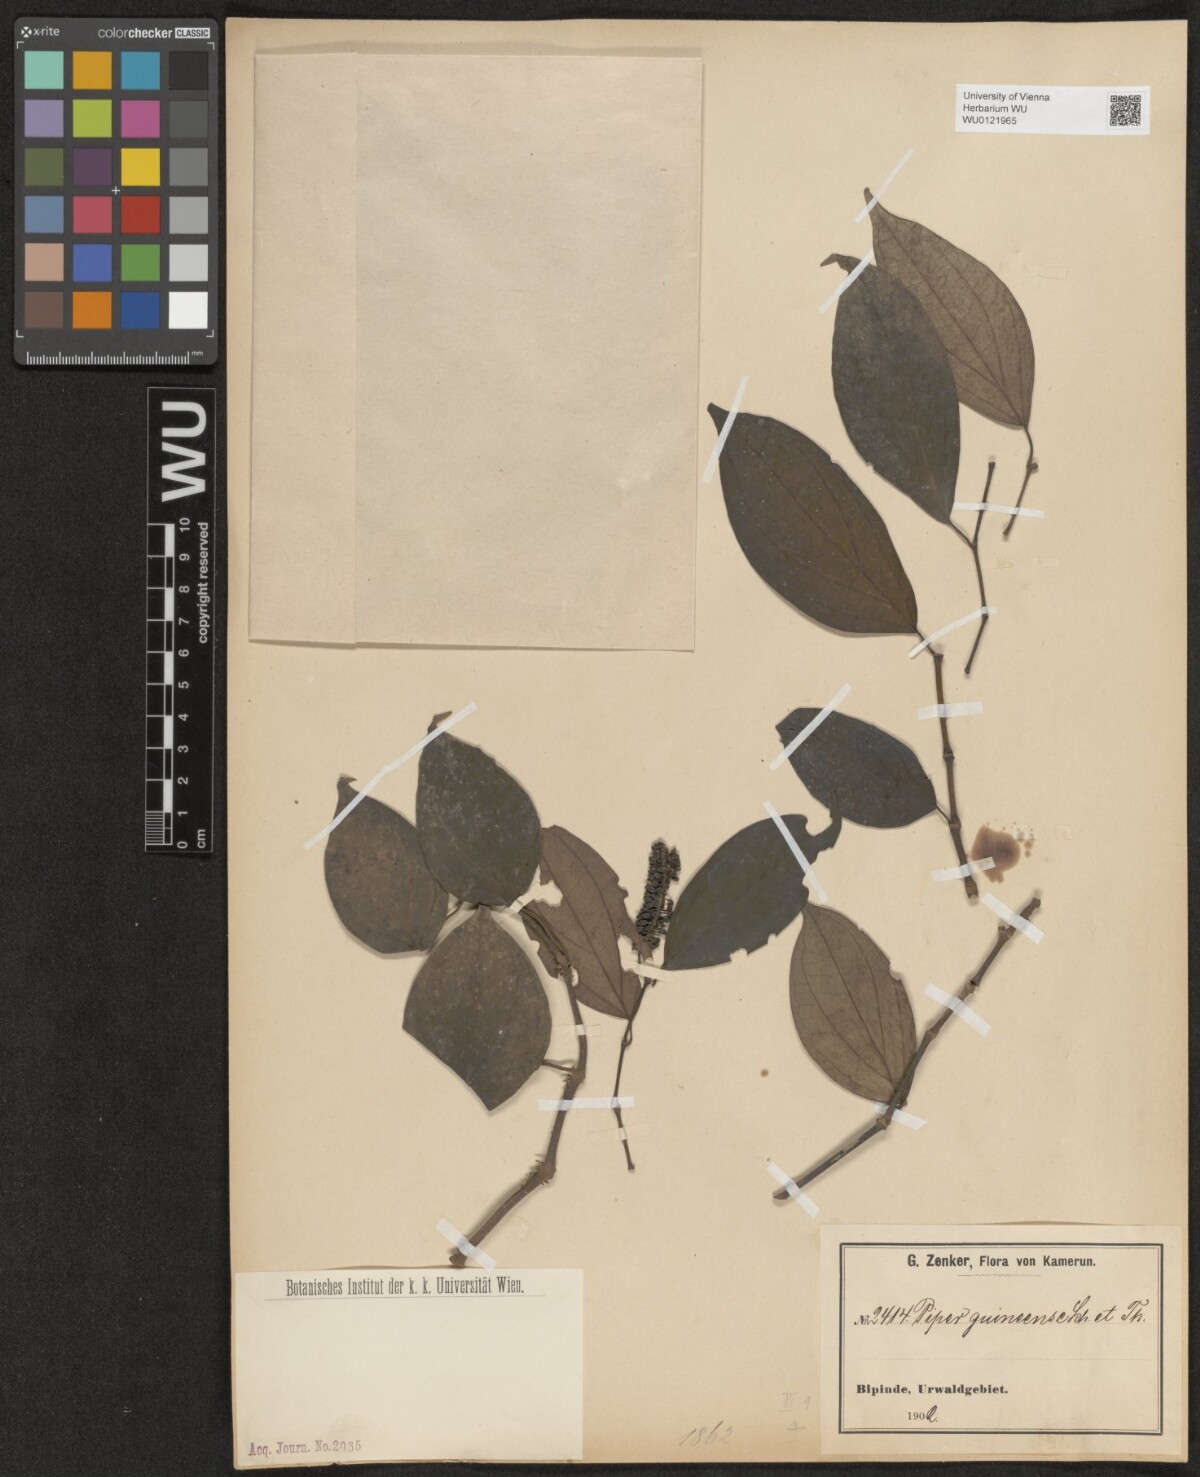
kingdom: Plantae
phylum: Tracheophyta
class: Magnoliopsida
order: Piperales
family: Piperaceae
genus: Piper
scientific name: Piper guineense
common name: Benin pepper
